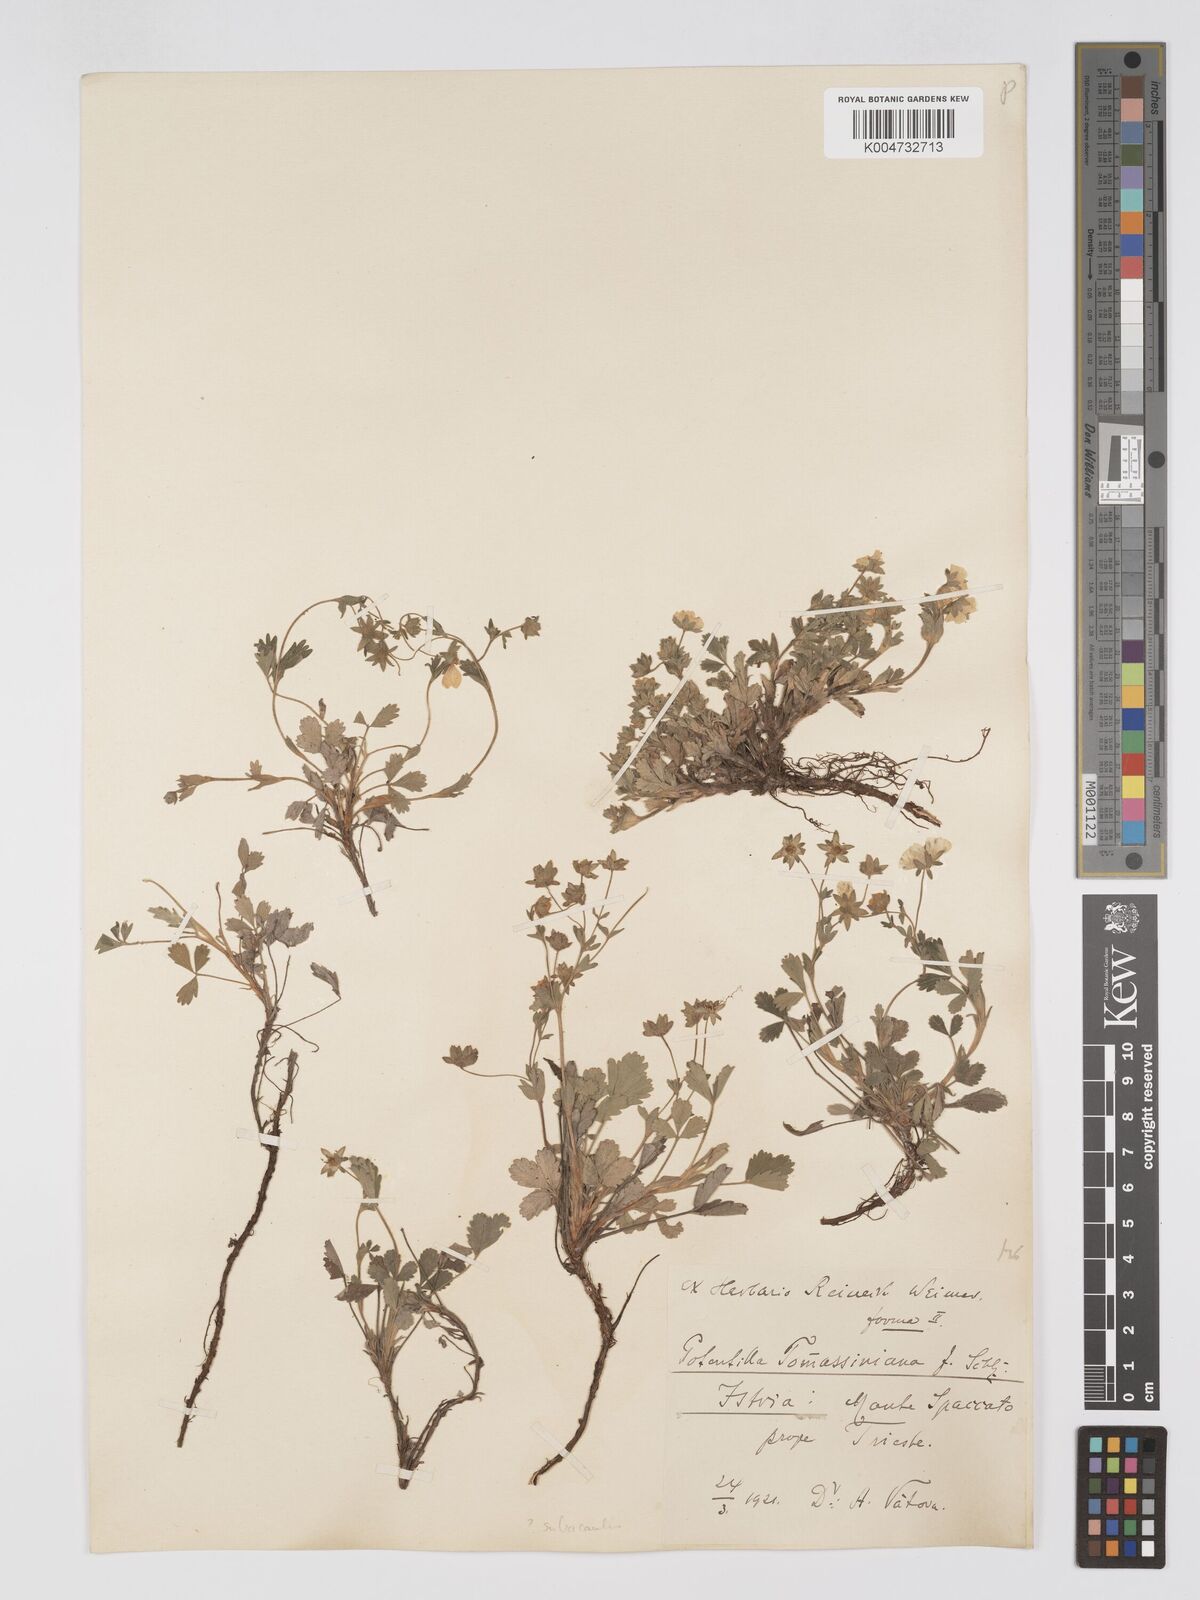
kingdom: Plantae
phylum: Tracheophyta
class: Magnoliopsida
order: Rosales
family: Rosaceae
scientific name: Rosaceae
